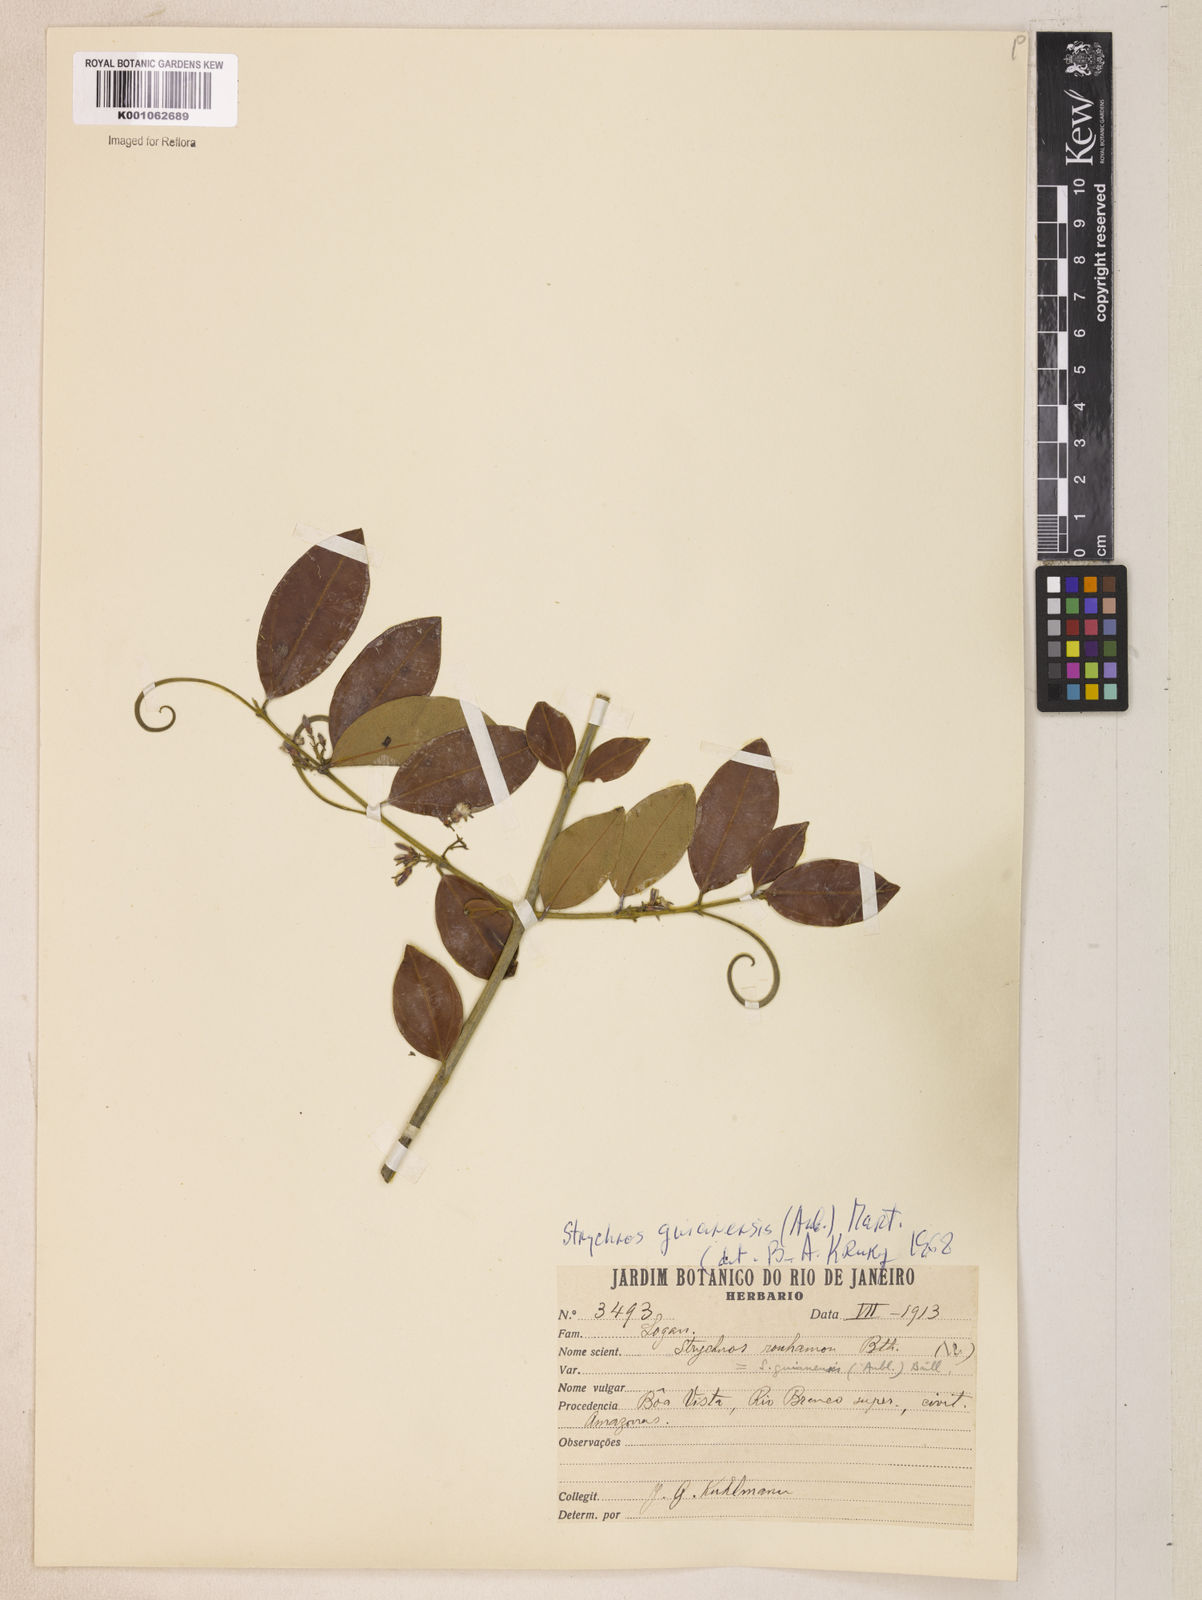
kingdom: Plantae
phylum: Tracheophyta
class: Magnoliopsida
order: Gentianales
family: Loganiaceae
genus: Strychnos
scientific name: Strychnos guianensis
